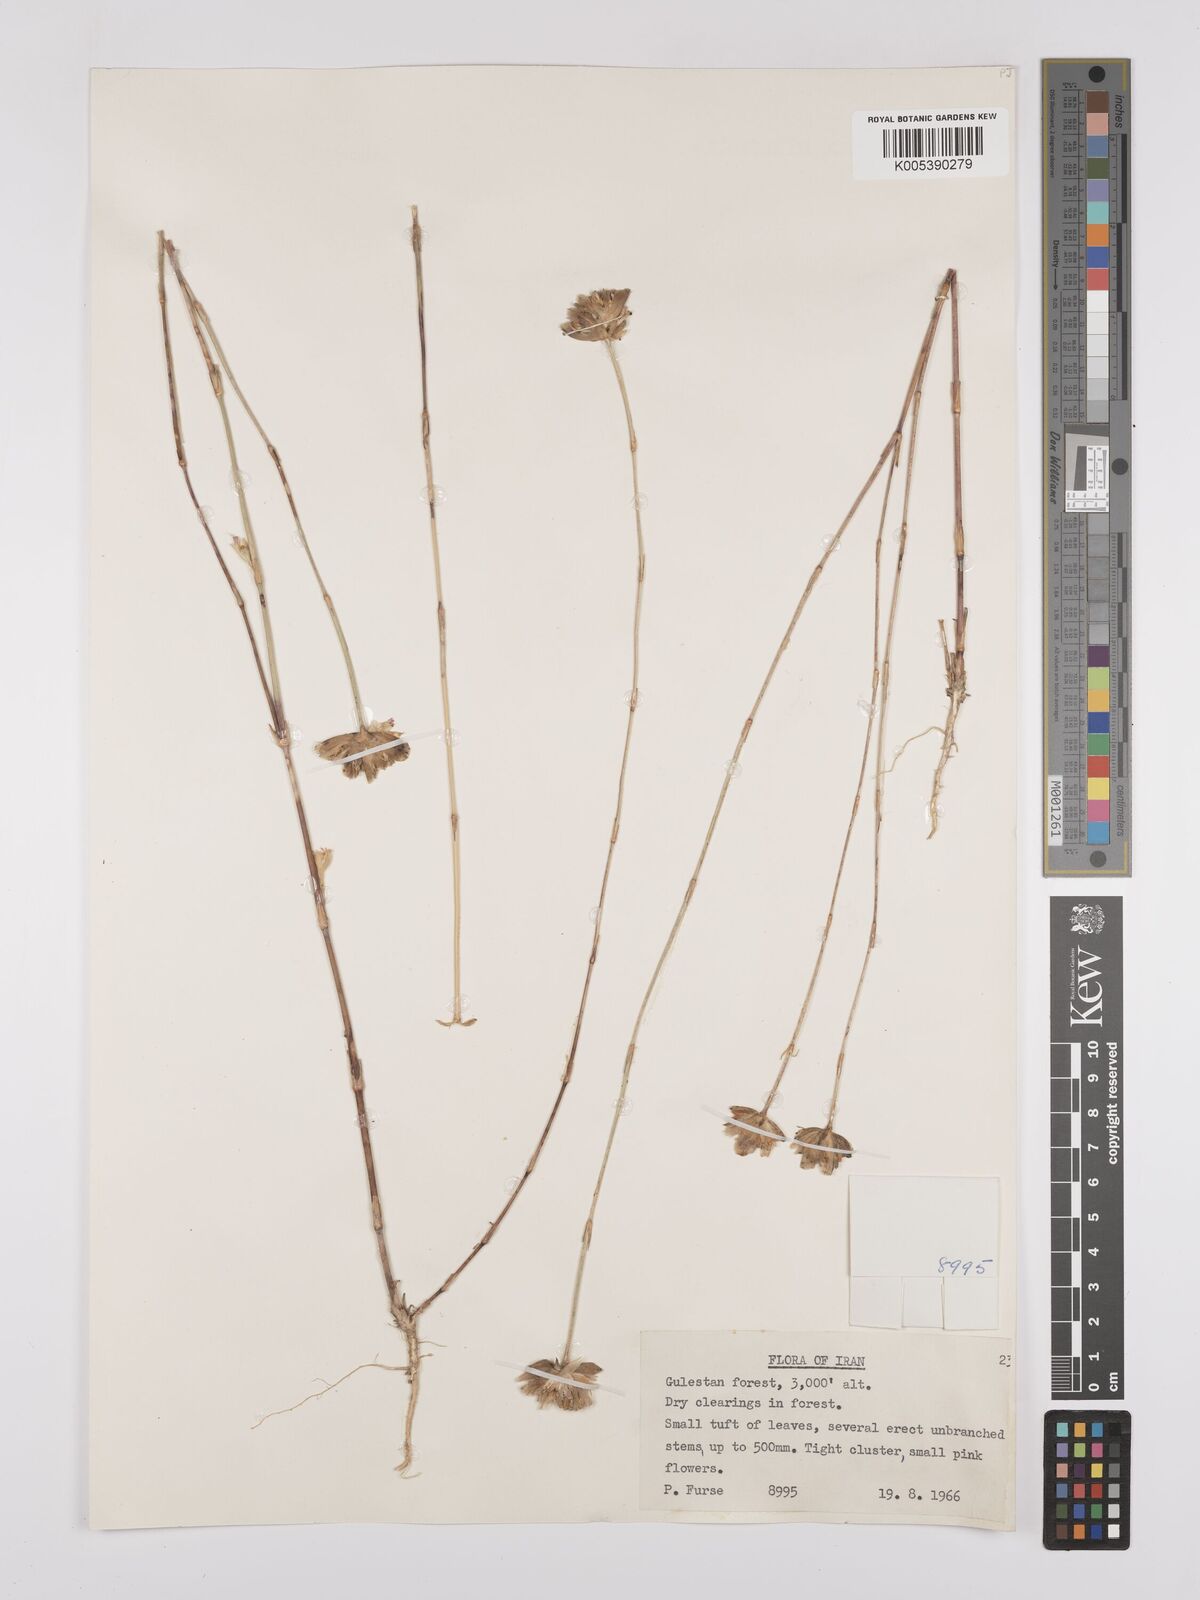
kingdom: Plantae
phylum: Tracheophyta
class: Magnoliopsida
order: Caryophyllales
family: Caryophyllaceae
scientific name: Caryophyllaceae
